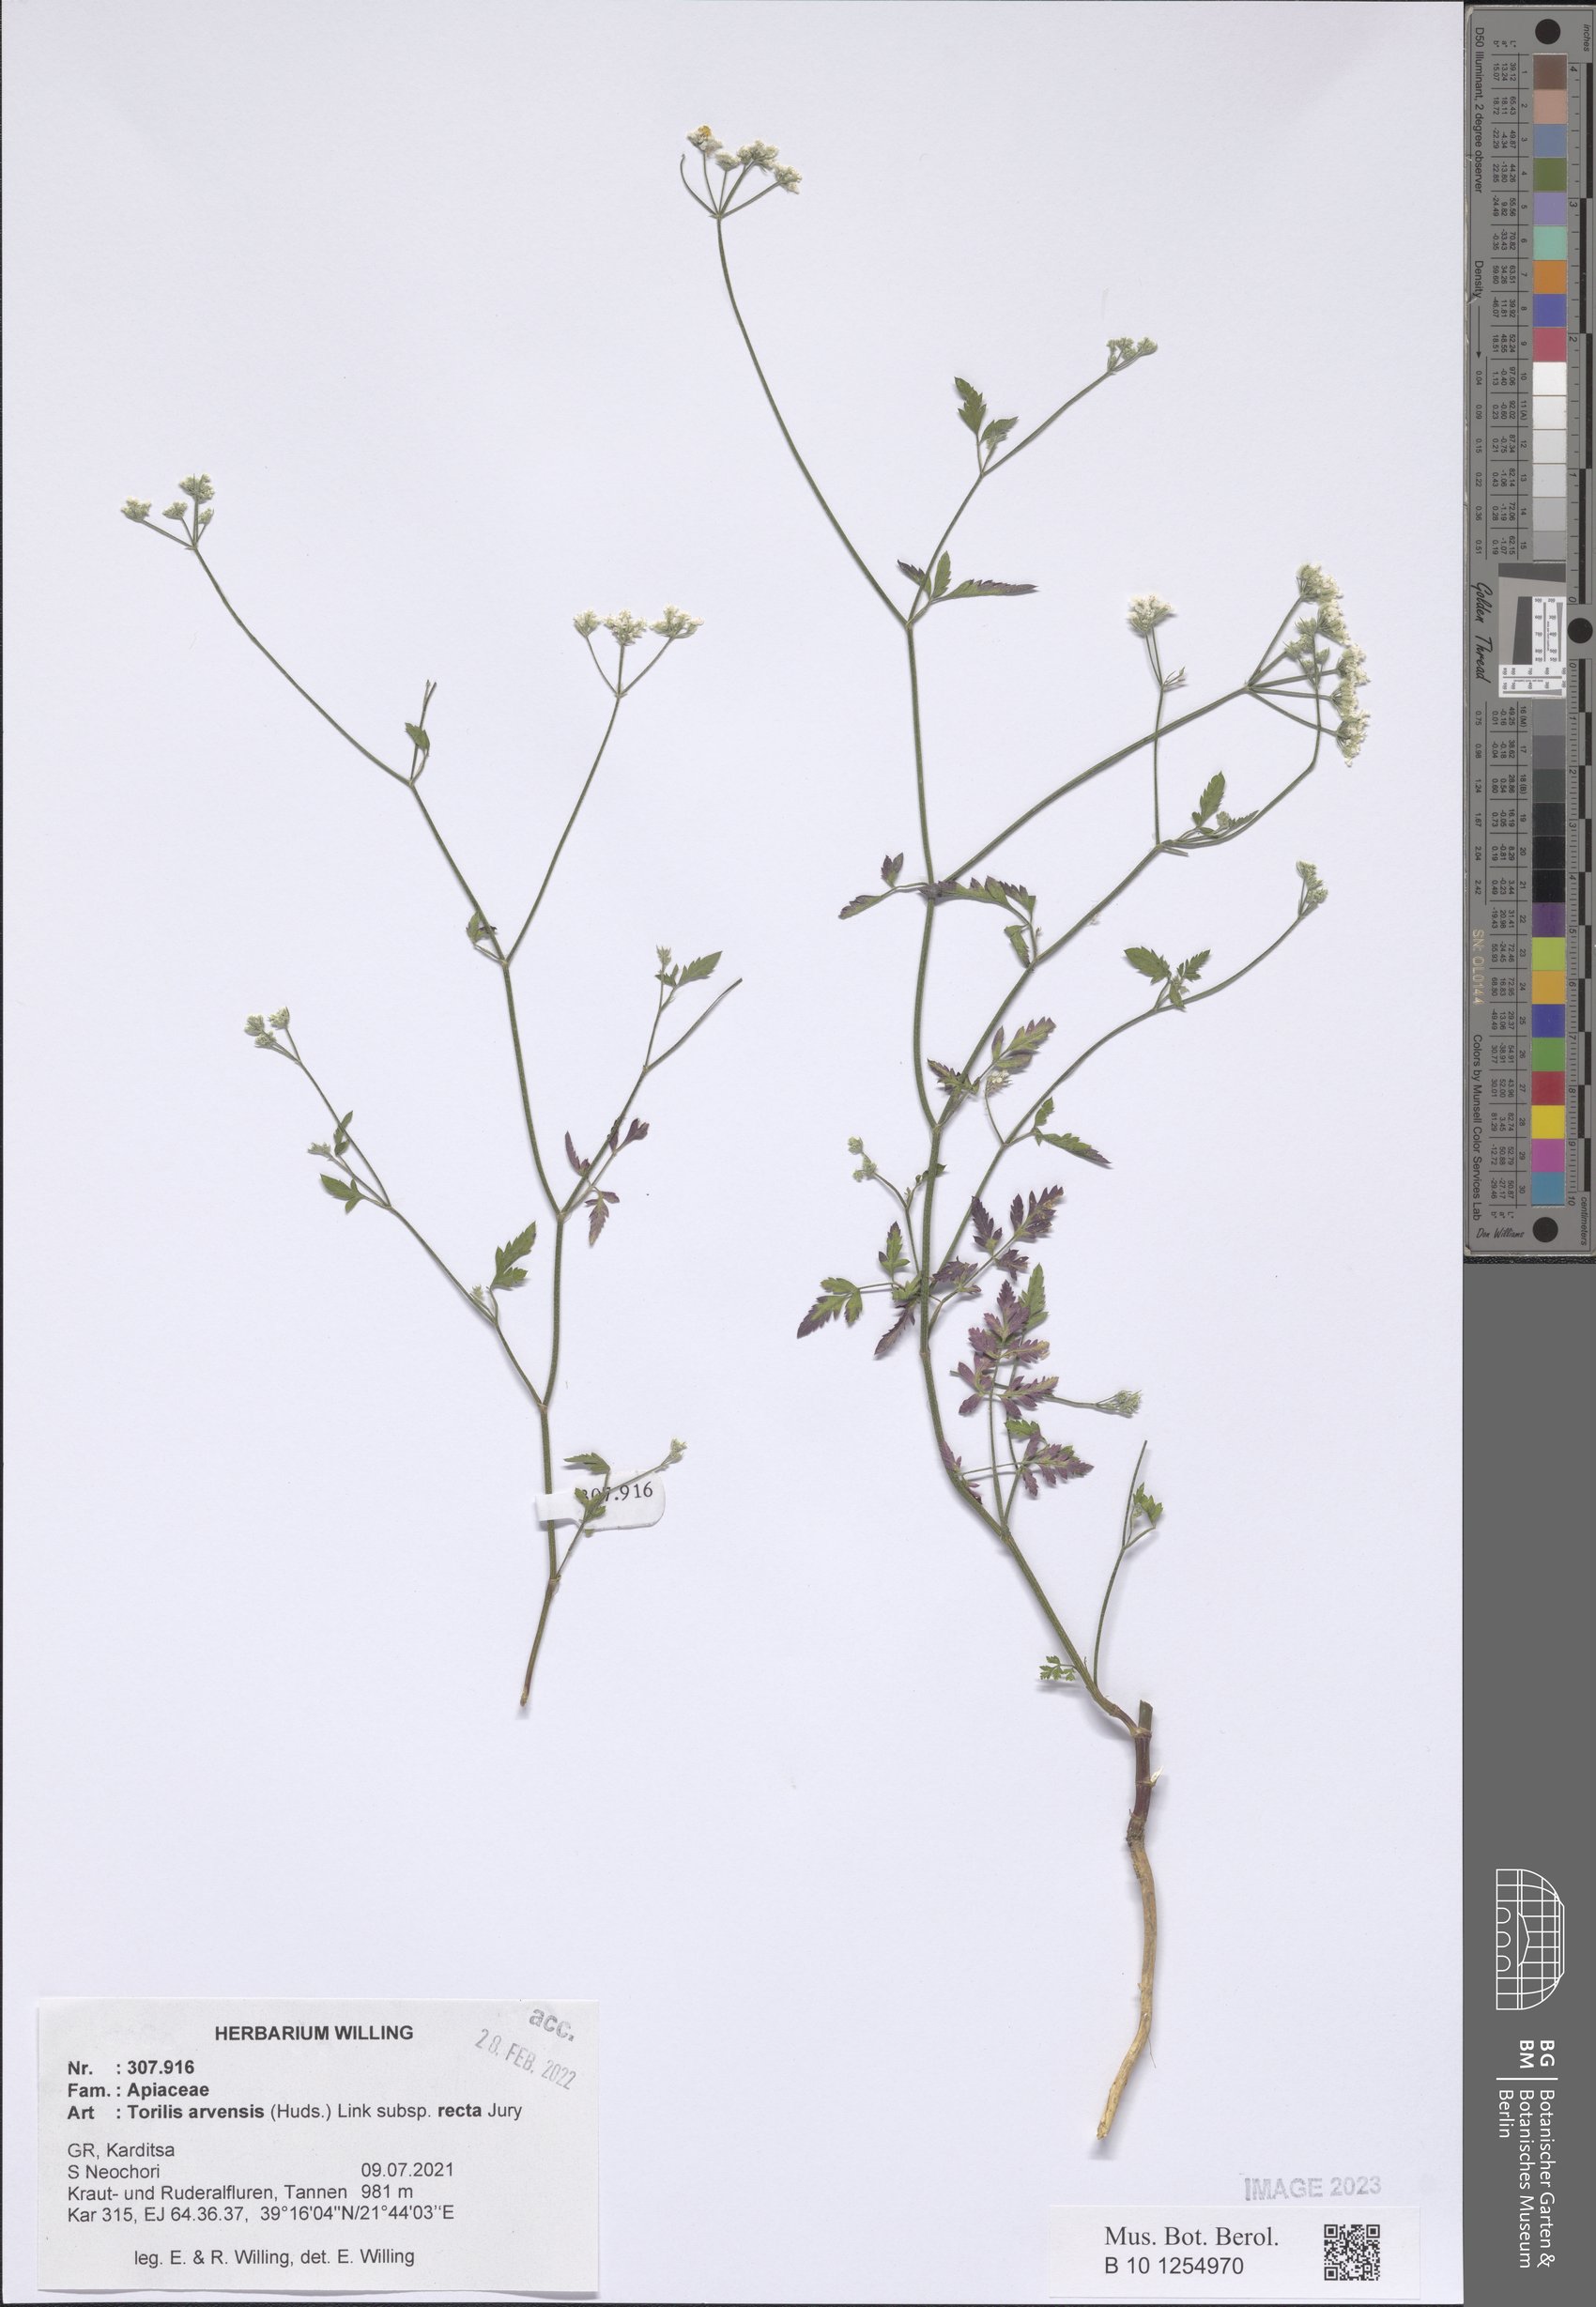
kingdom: Plantae
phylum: Tracheophyta
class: Magnoliopsida
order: Apiales
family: Apiaceae
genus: Torilis
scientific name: Torilis arvensis
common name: Spreading hedge-parsley
